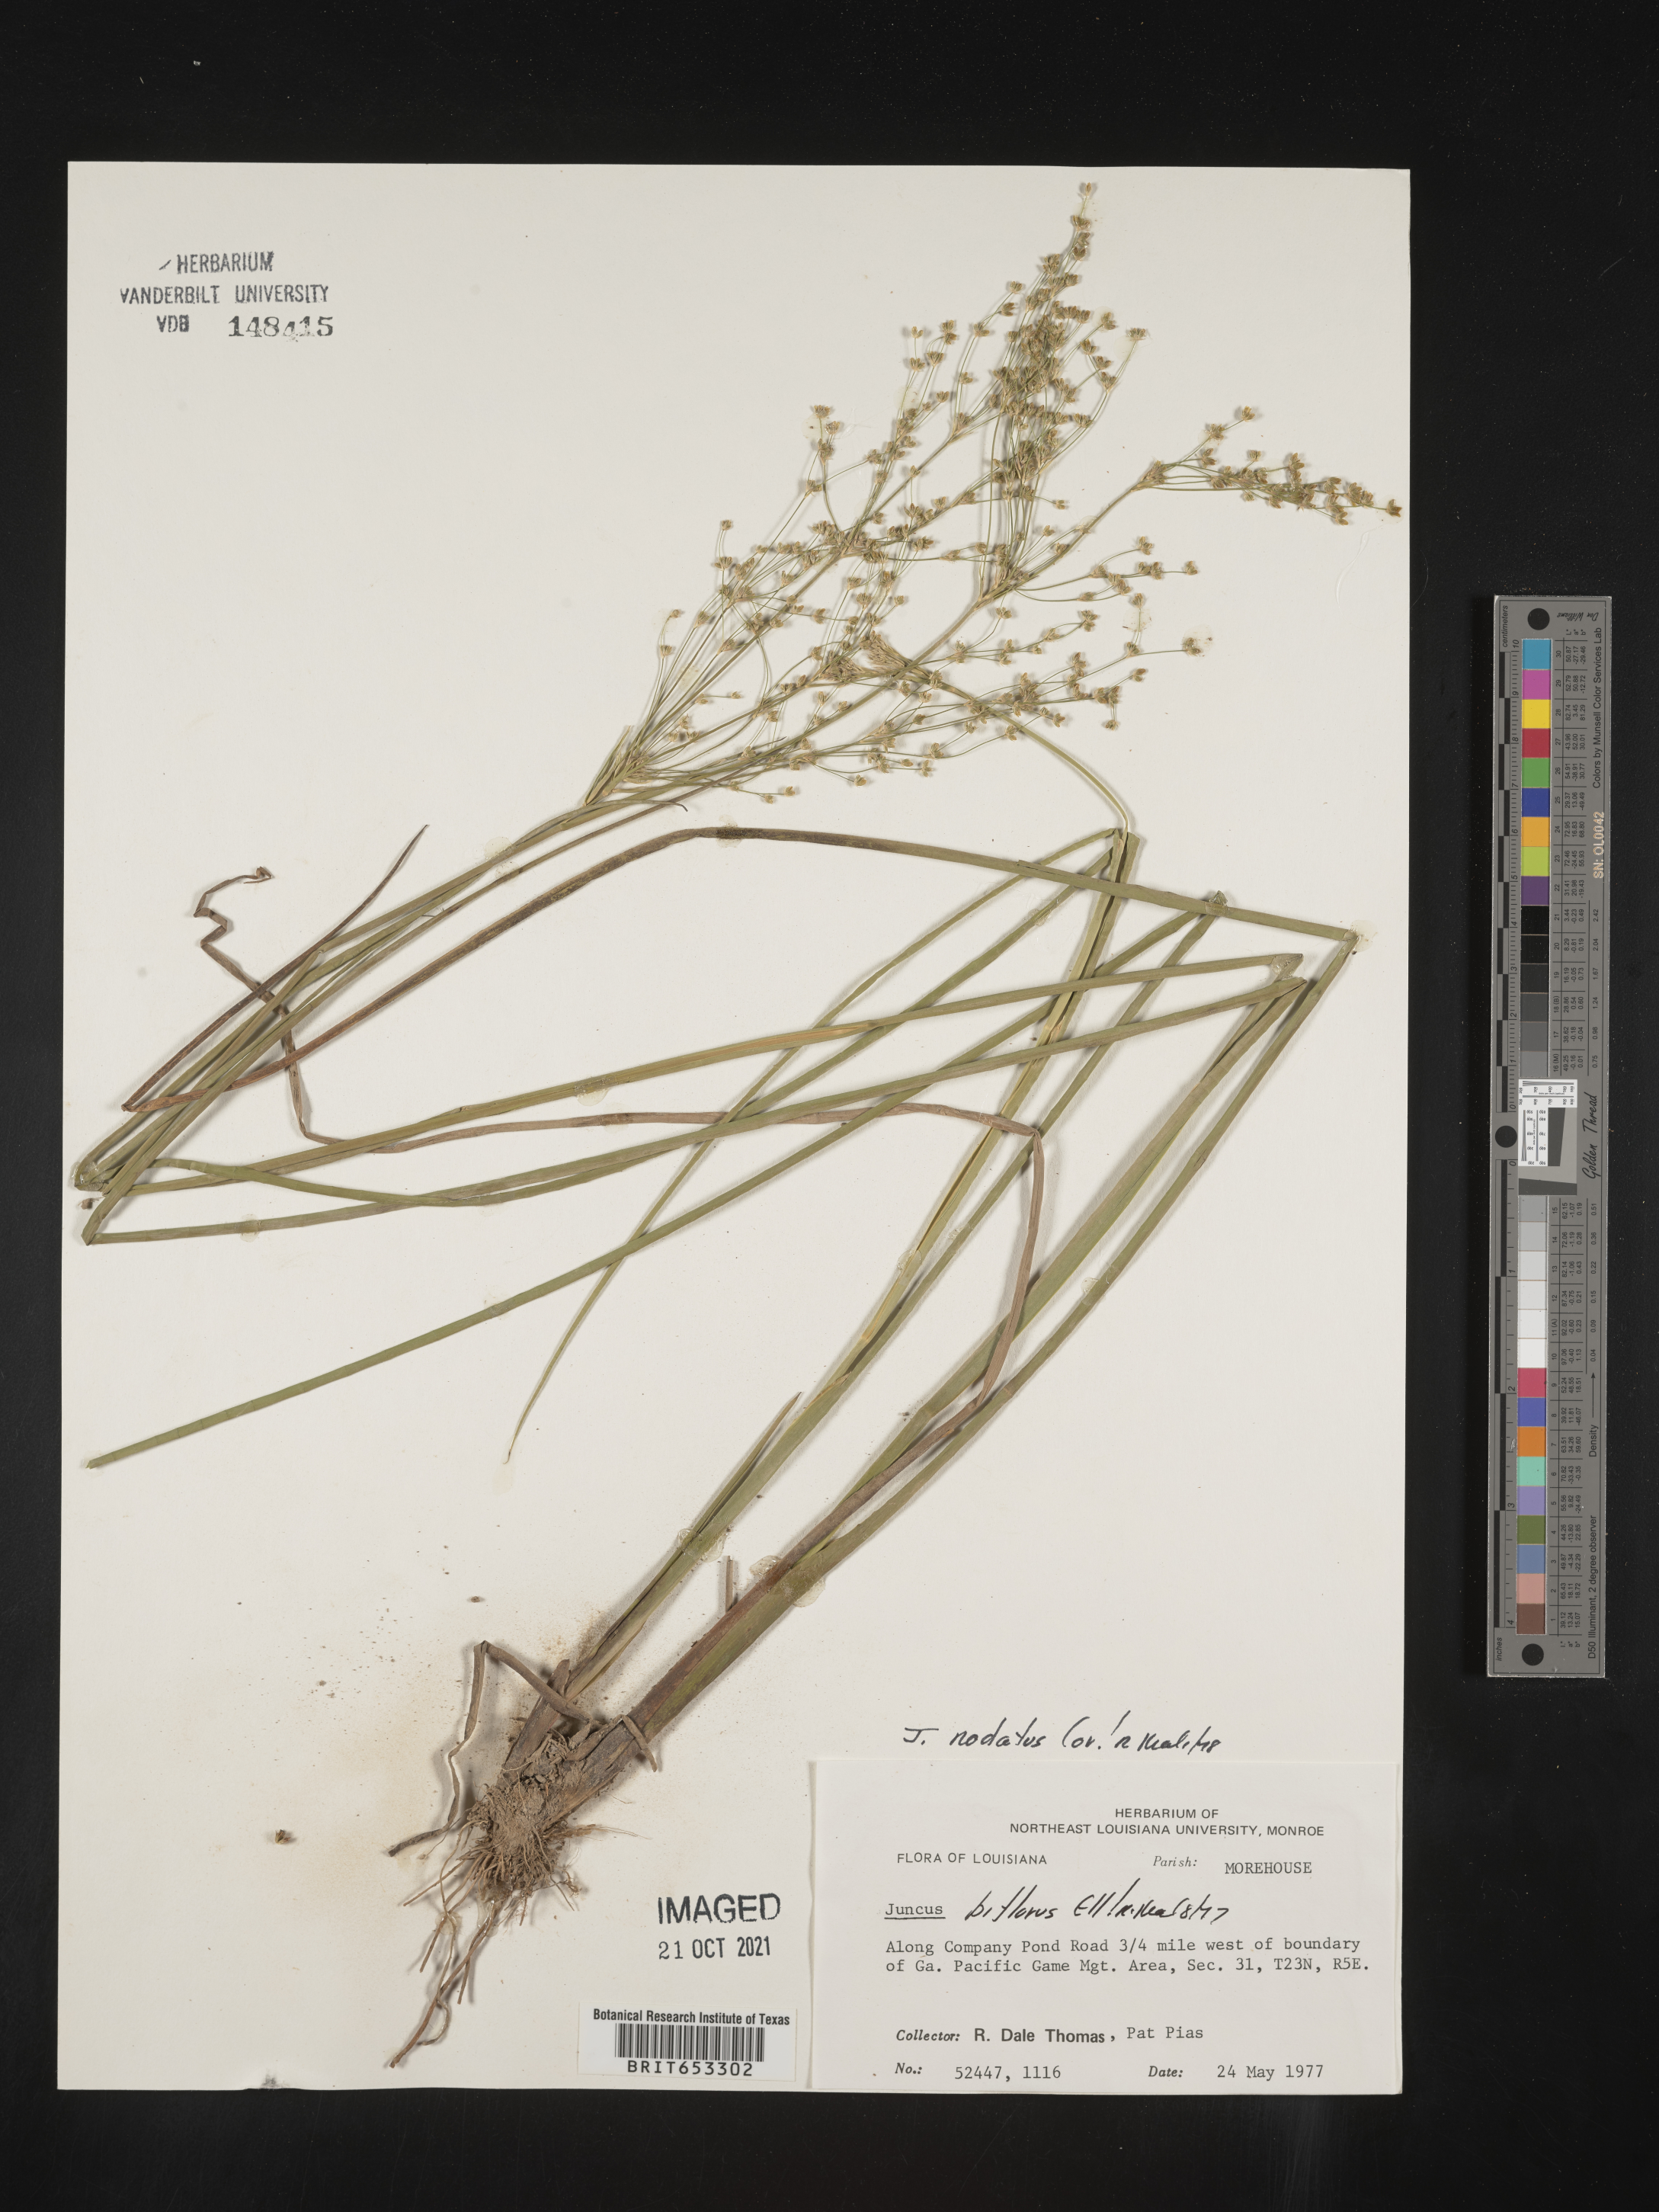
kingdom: Plantae
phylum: Tracheophyta
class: Liliopsida
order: Poales
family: Juncaceae
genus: Juncus
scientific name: Juncus nodatus
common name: Stout rush
